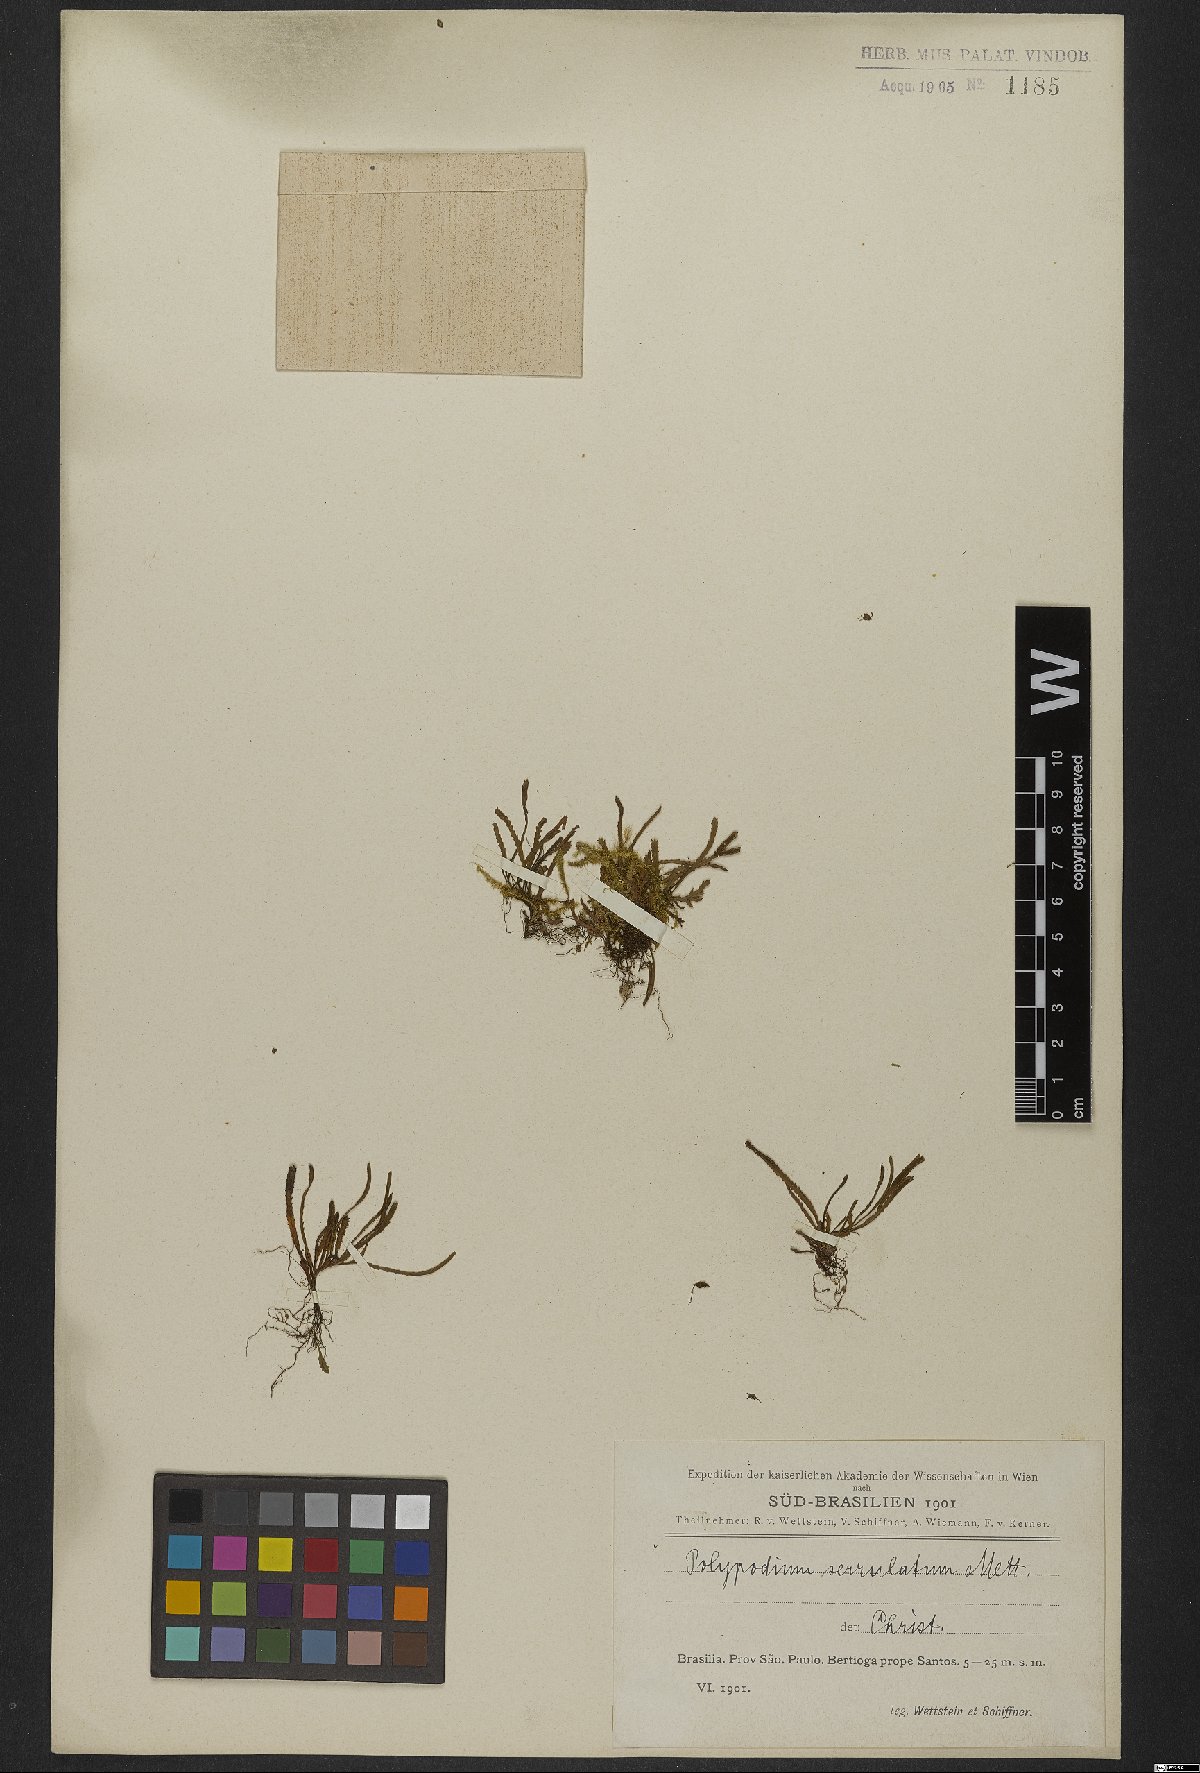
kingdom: Plantae
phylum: Tracheophyta
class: Polypodiopsida
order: Polypodiales
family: Polypodiaceae
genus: Cochlidium
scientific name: Cochlidium serrulatum
